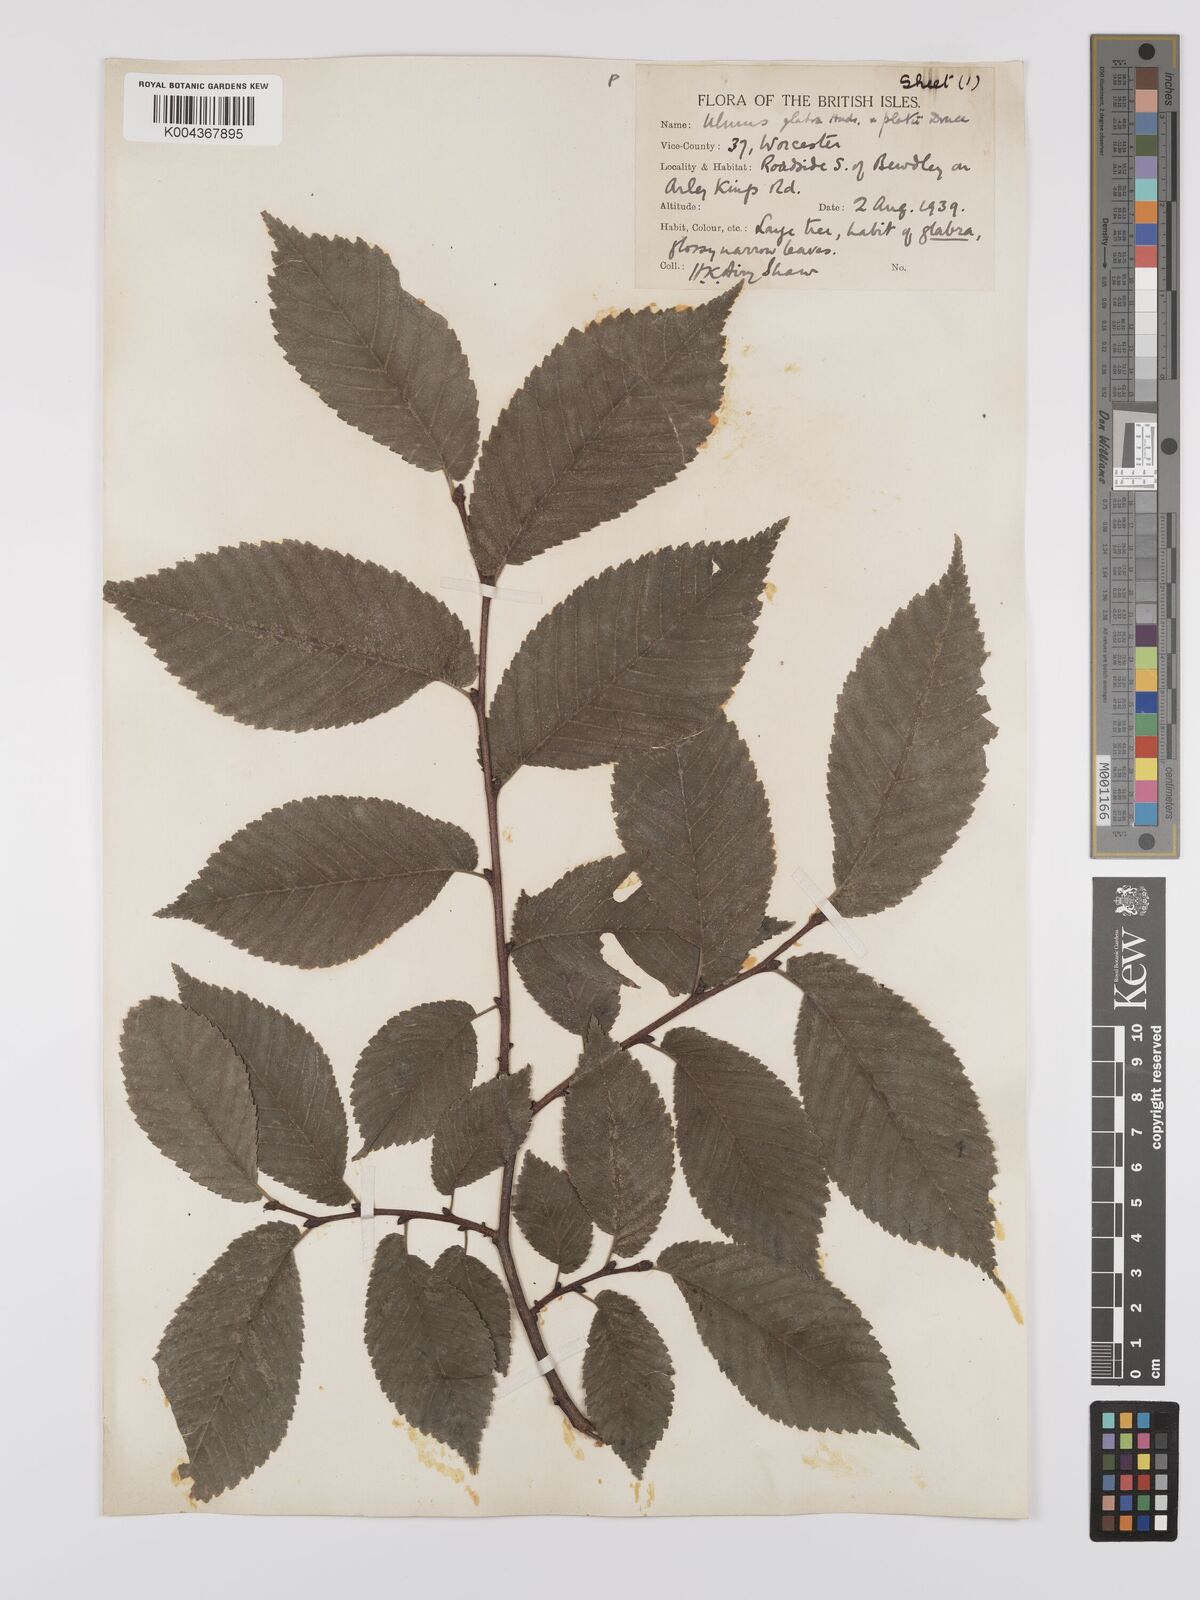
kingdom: Plantae
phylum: Tracheophyta
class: Magnoliopsida
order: Rosales
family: Ulmaceae
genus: Ulmus
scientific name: Ulmus glabra
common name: Wych elm
